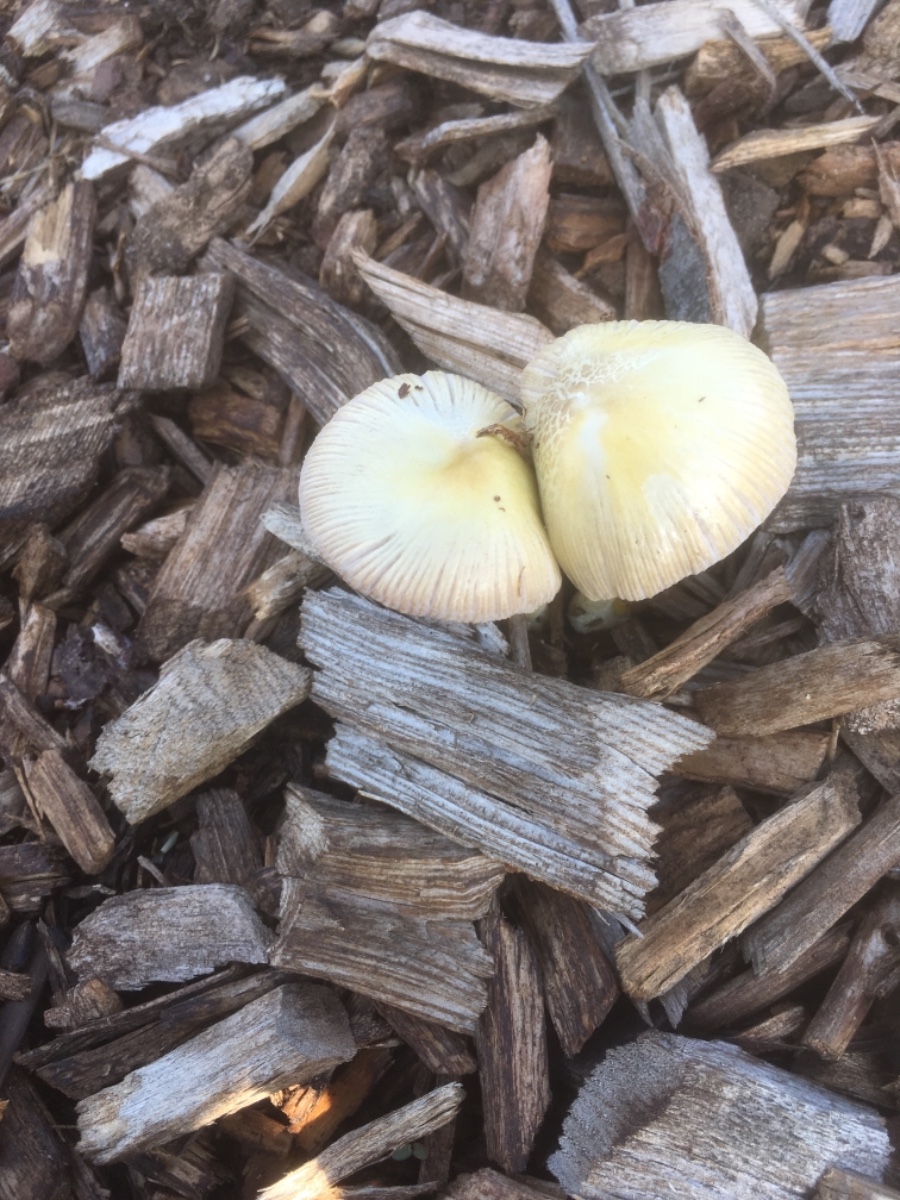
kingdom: Fungi
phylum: Basidiomycota
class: Agaricomycetes
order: Agaricales
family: Bolbitiaceae
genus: Bolbitius
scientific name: Bolbitius titubans
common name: almindelig gulhat
